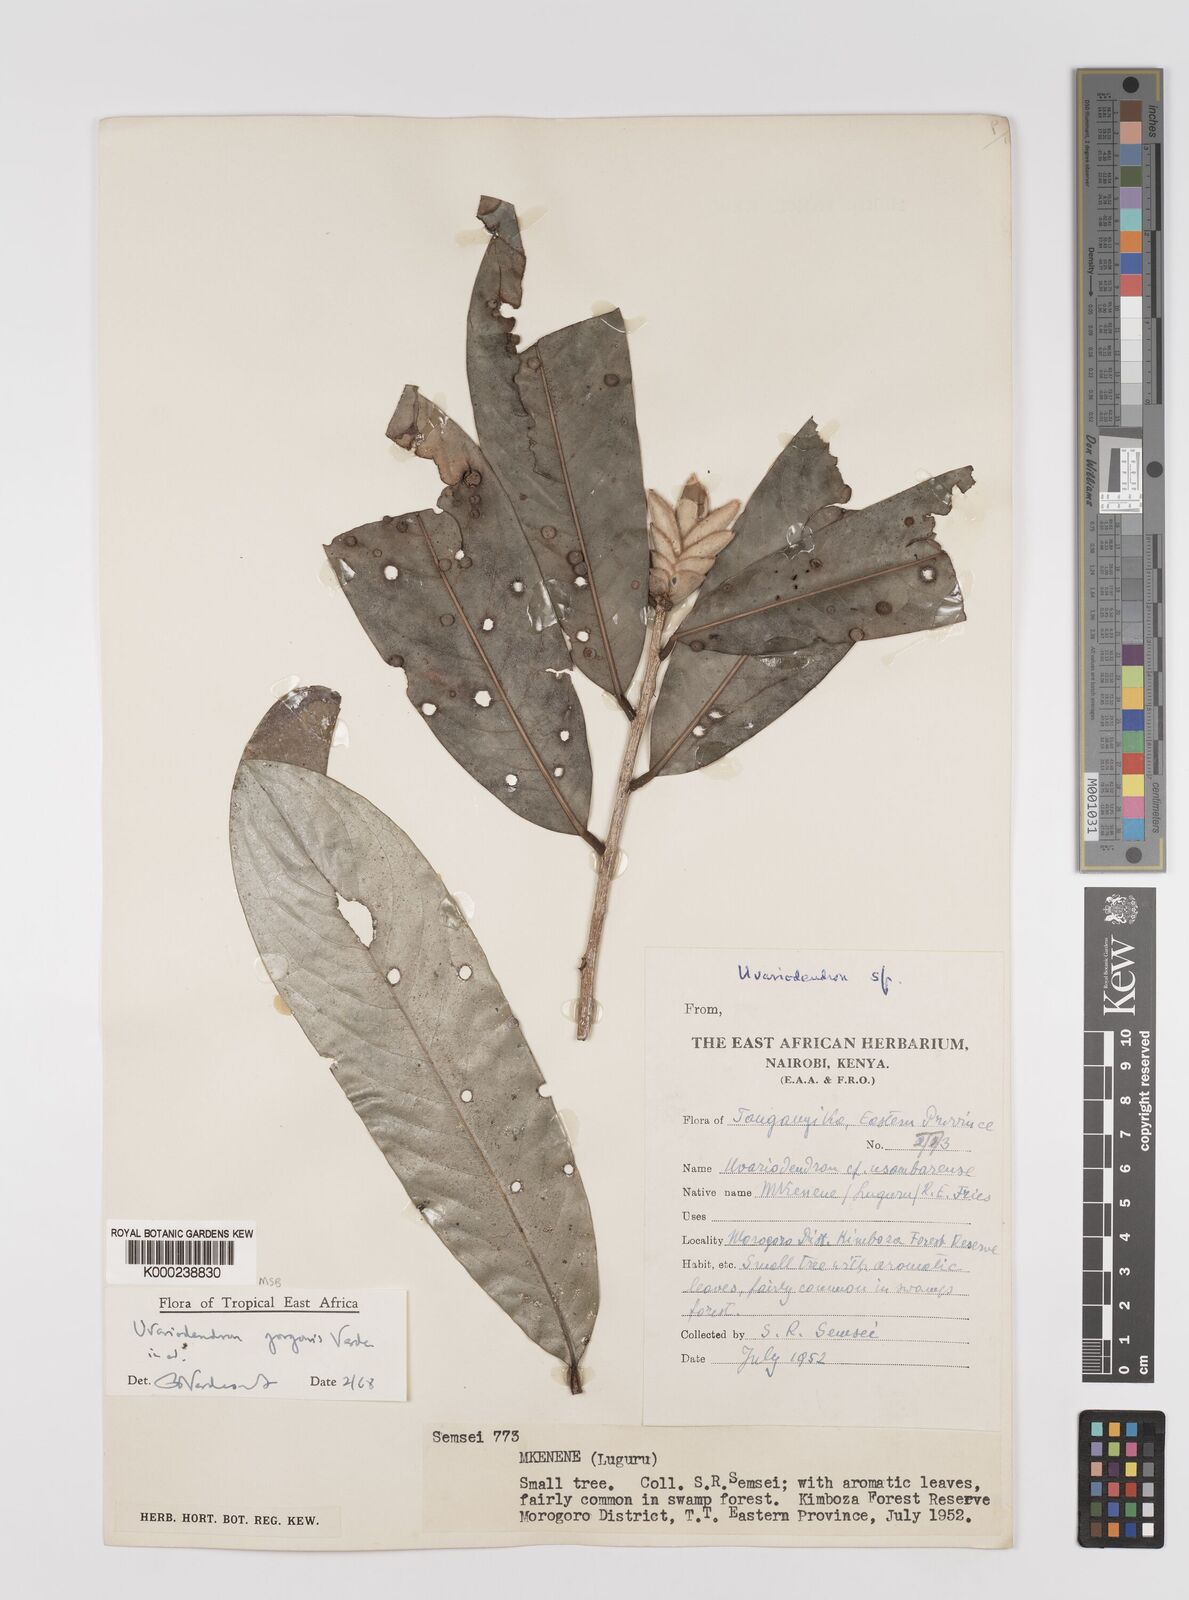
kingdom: Plantae
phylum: Tracheophyta
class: Magnoliopsida
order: Magnoliales
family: Annonaceae
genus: Uvariodendron
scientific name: Uvariodendron gorgonis
